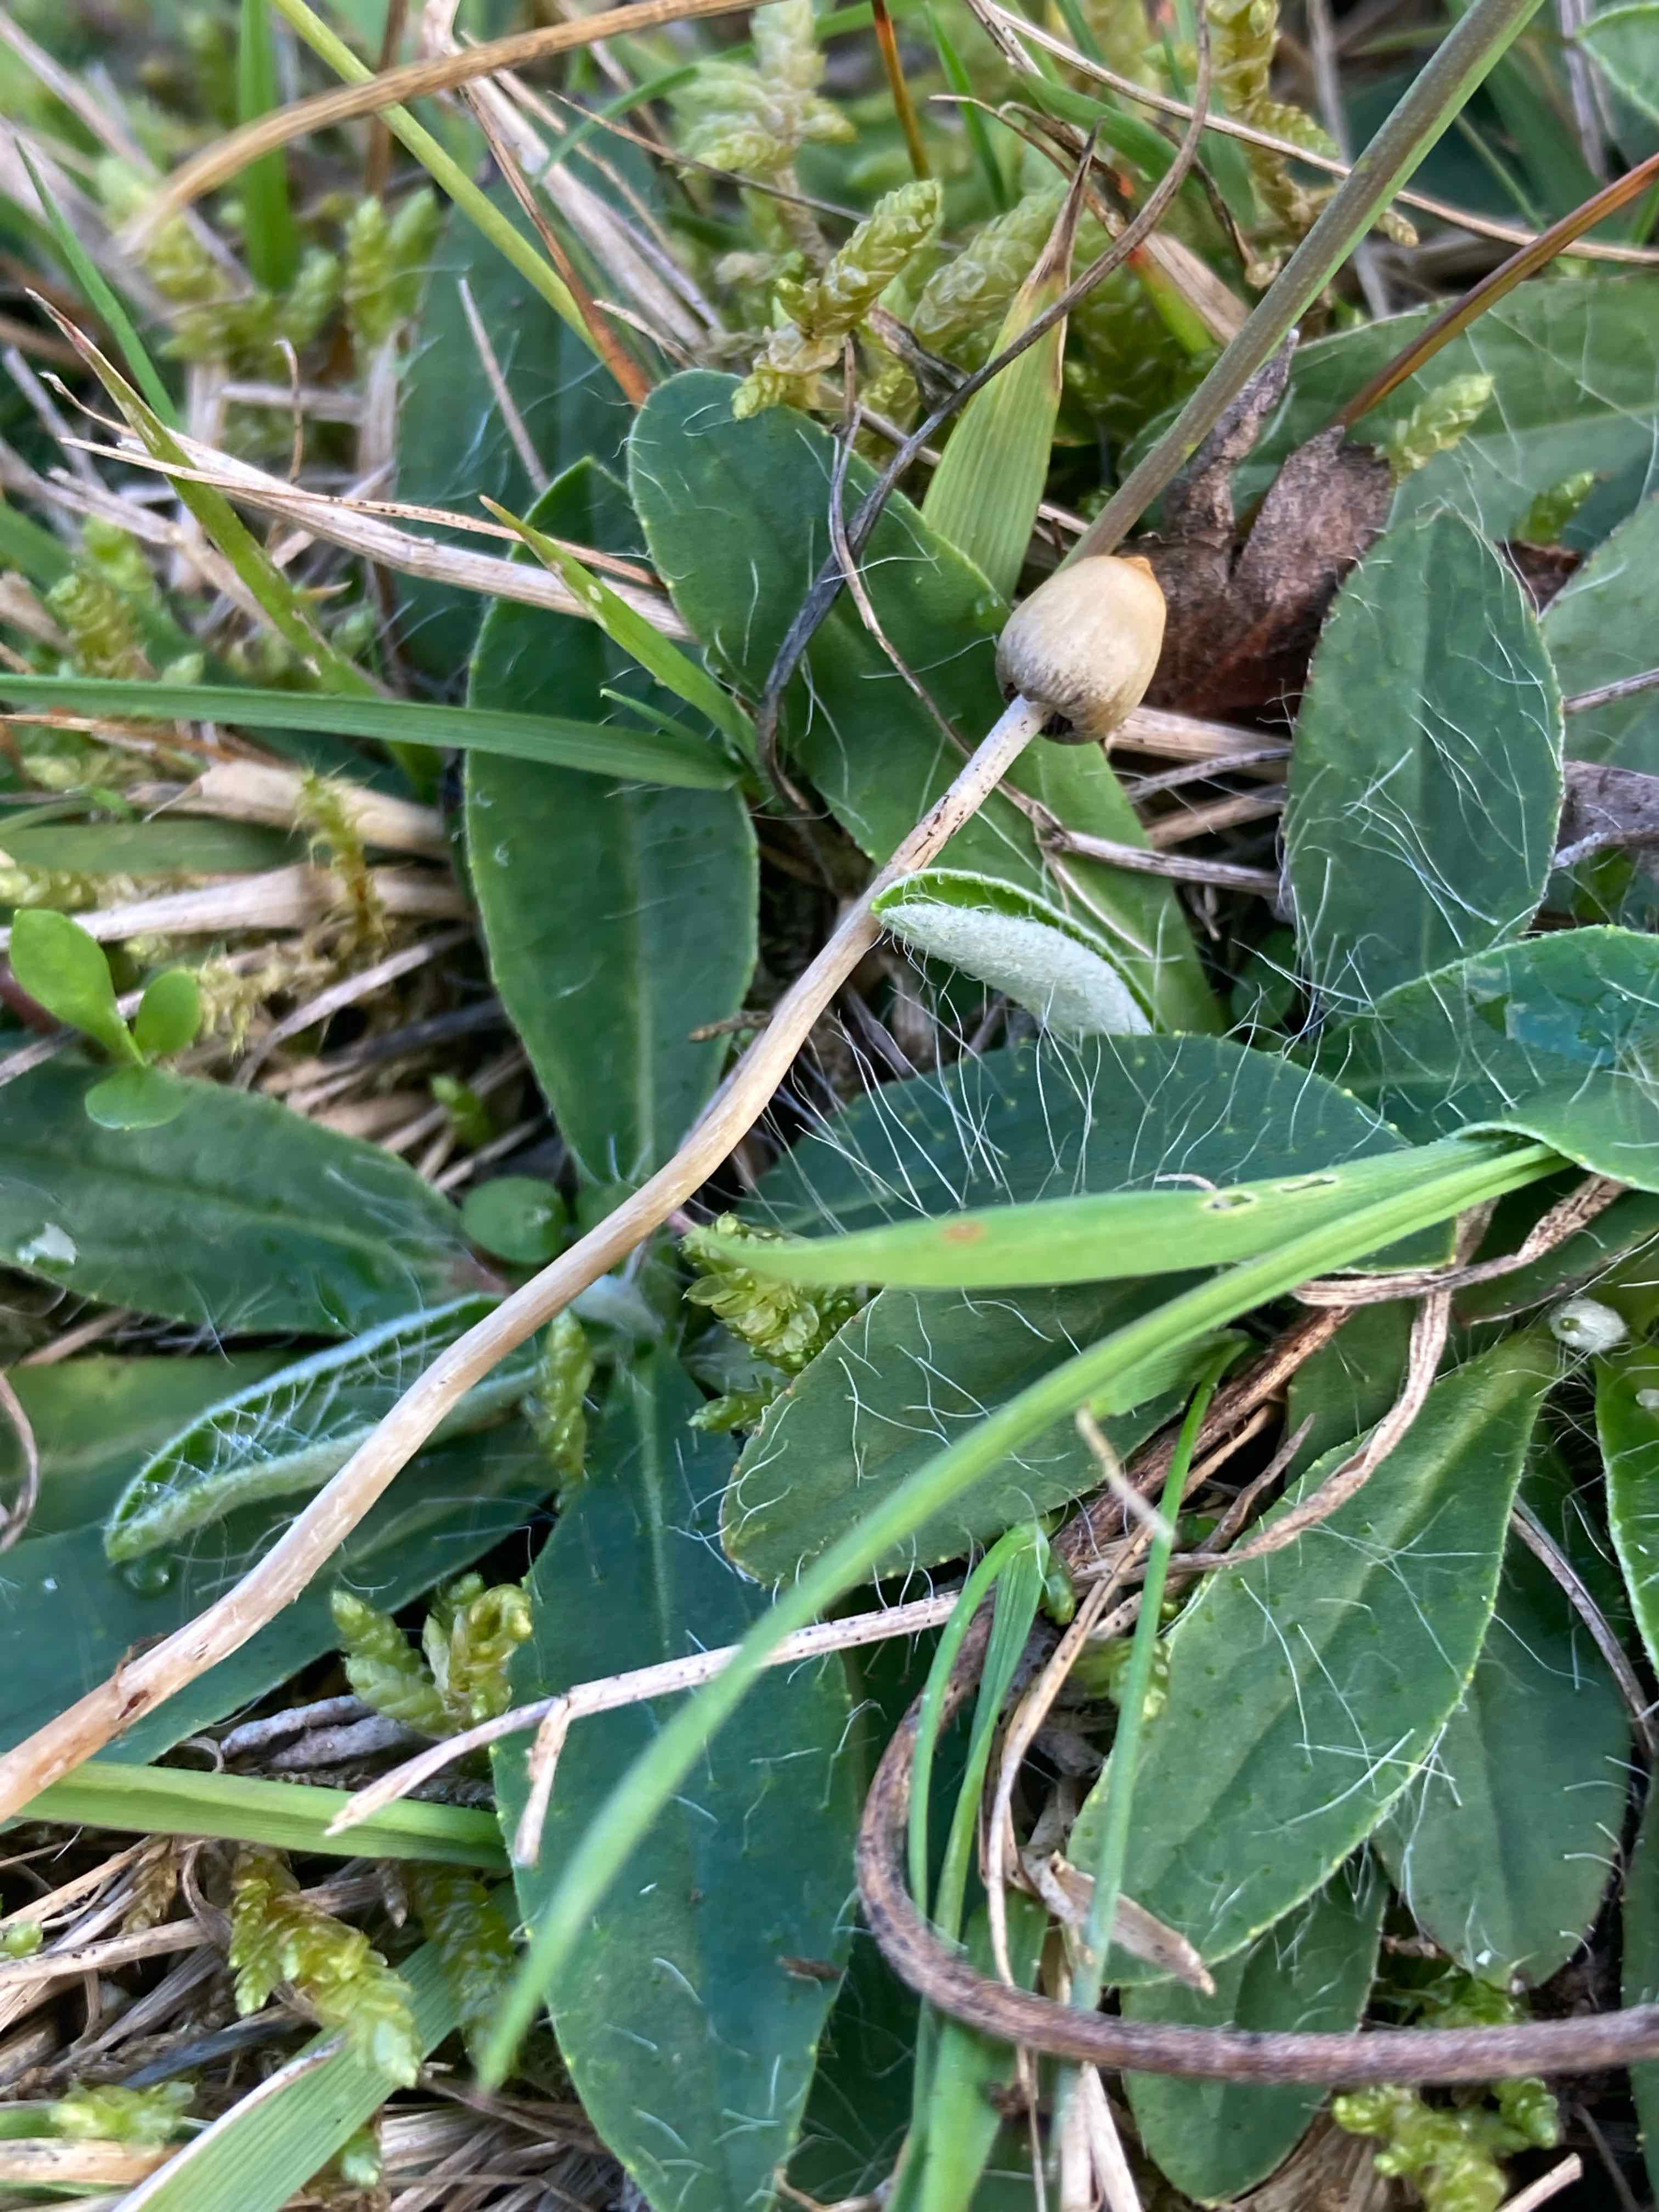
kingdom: Fungi
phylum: Basidiomycota
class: Agaricomycetes
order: Agaricales
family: Hymenogastraceae
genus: Psilocybe
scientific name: Psilocybe semilanceata
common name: spids nøgenhat
